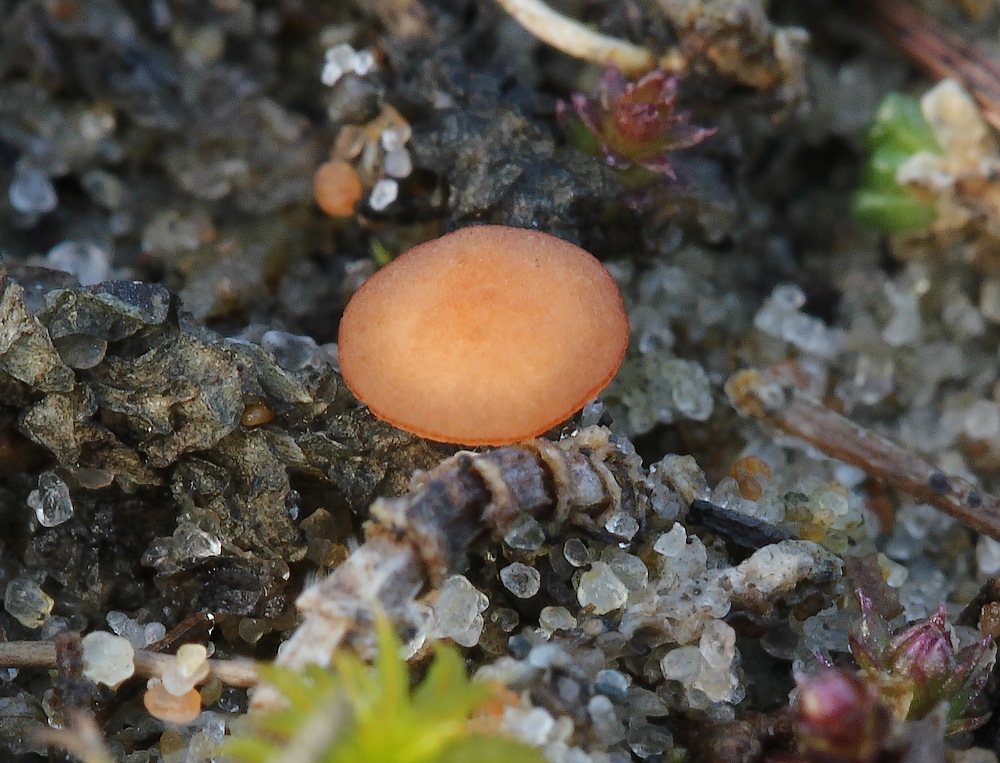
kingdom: Fungi
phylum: Ascomycota
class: Leotiomycetes
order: Helotiales
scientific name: Helotiales
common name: stilkskiveordenen
